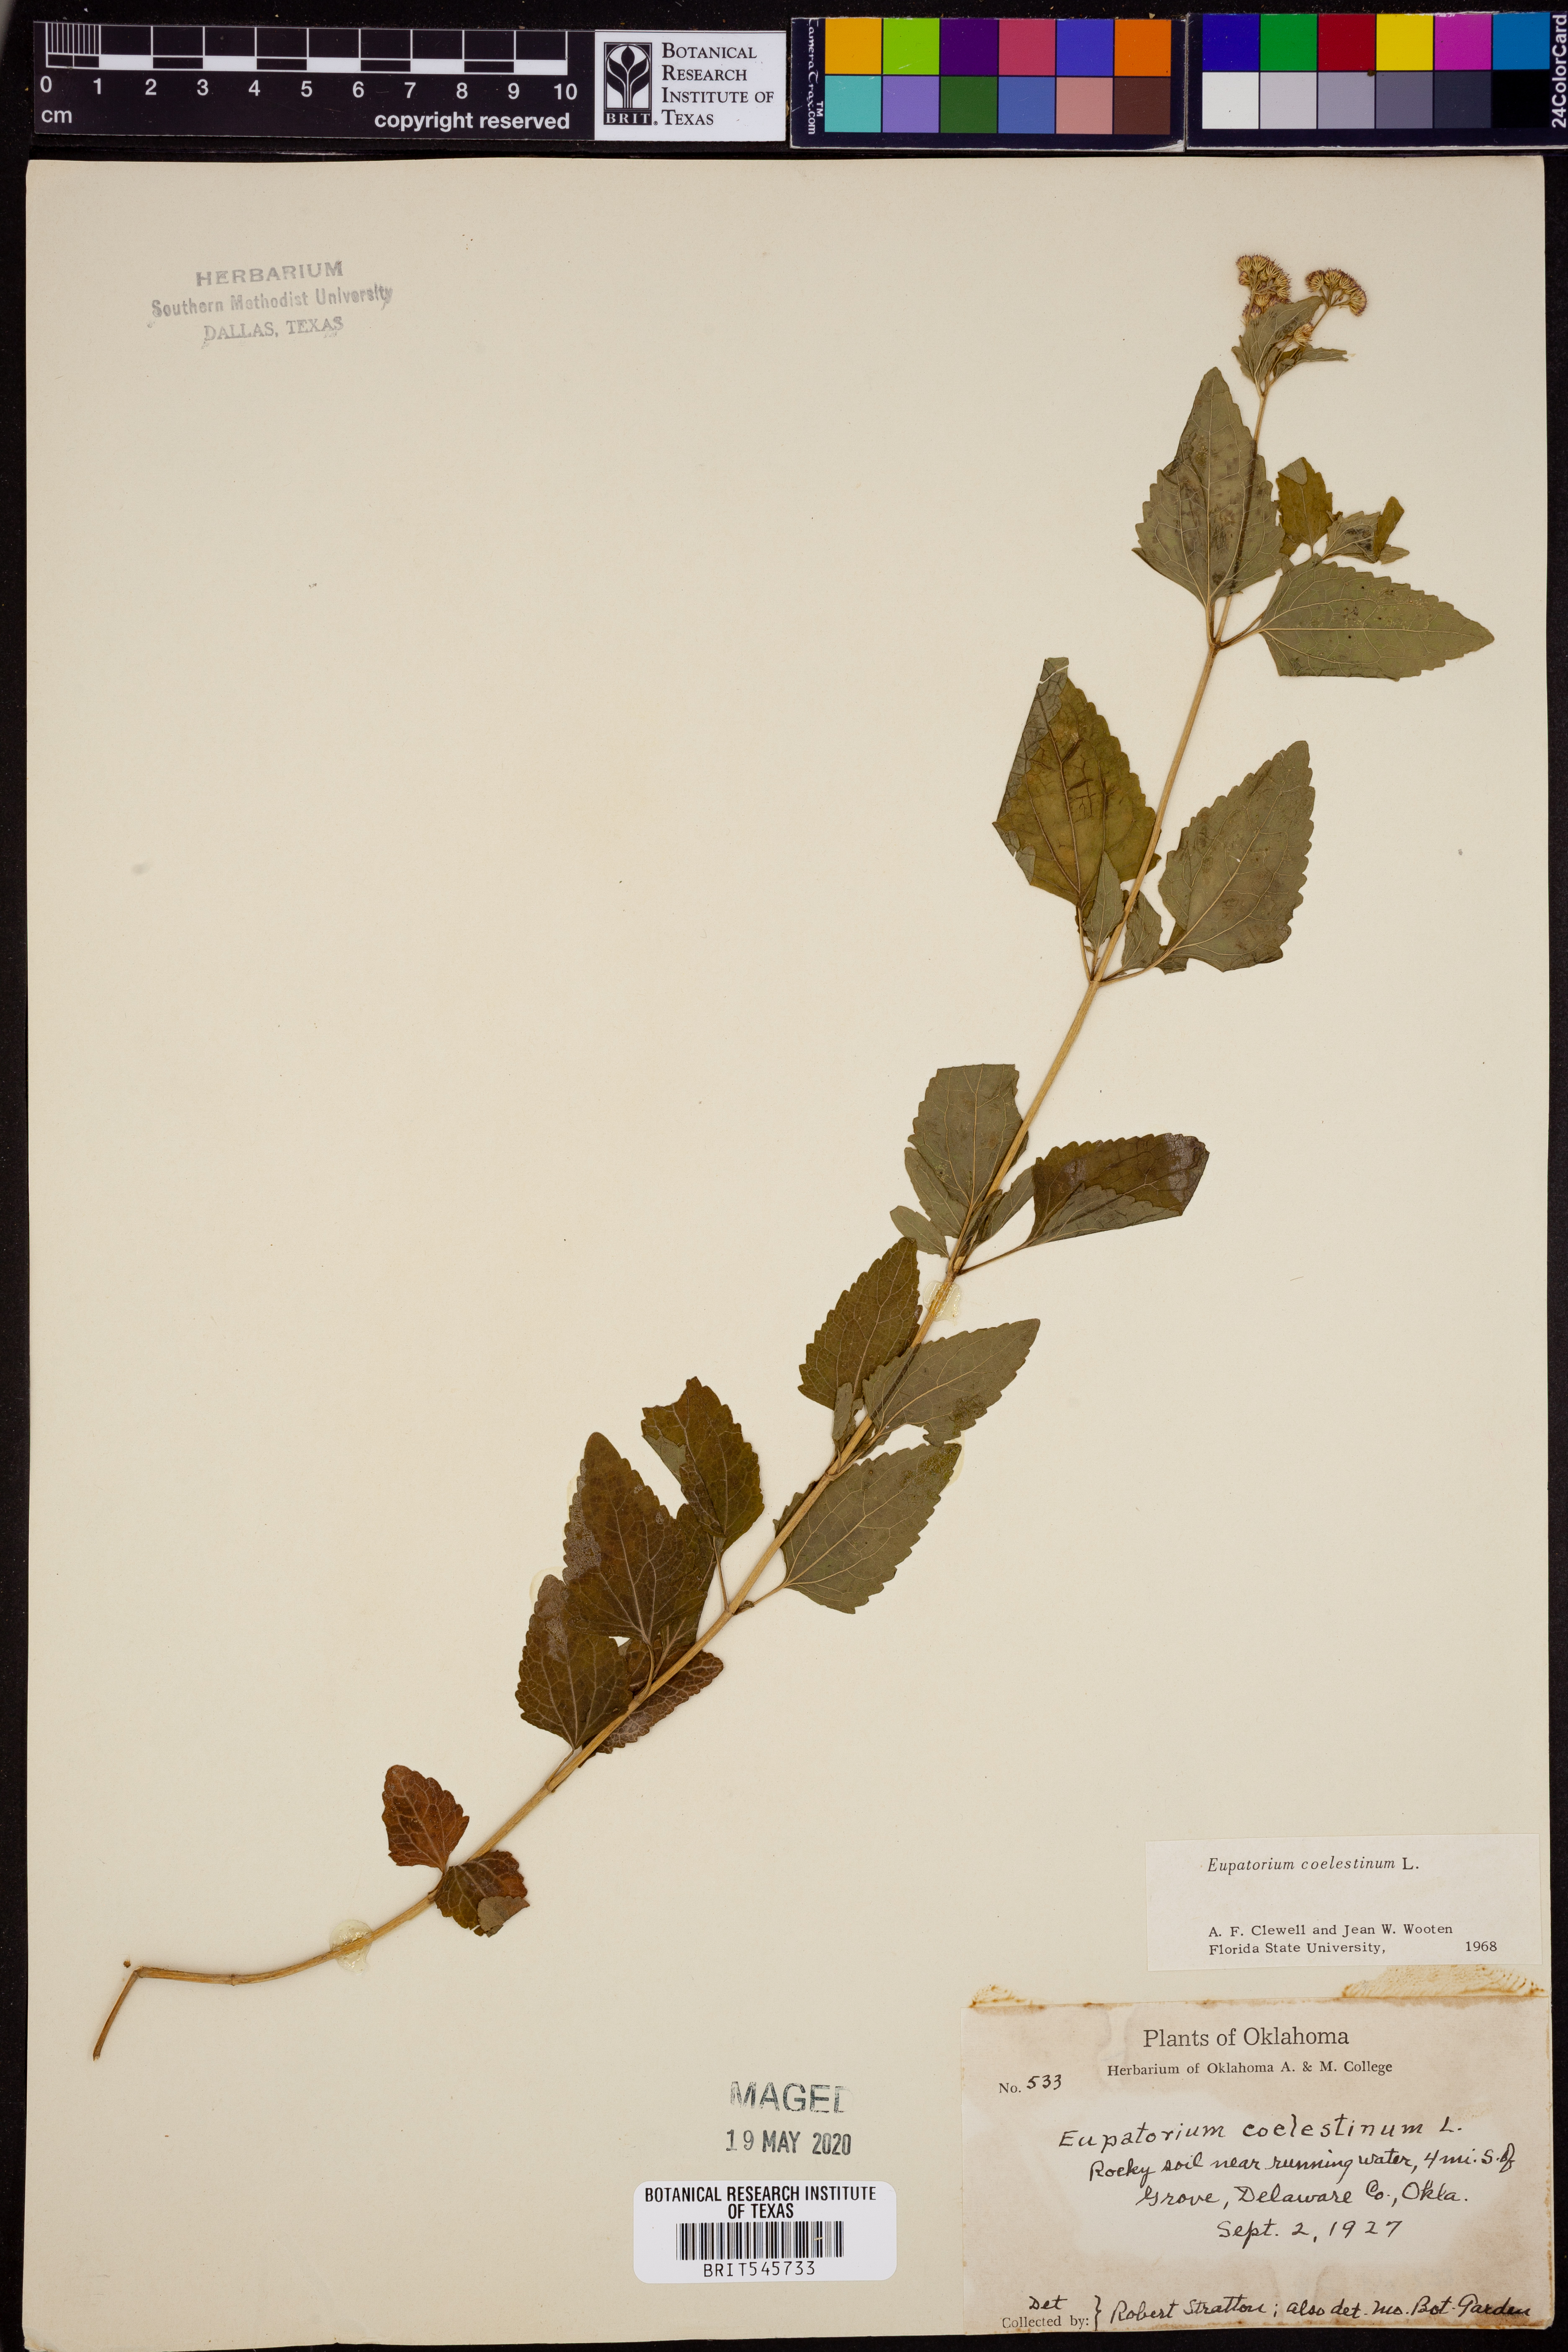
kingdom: Plantae
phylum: Tracheophyta
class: Magnoliopsida
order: Asterales
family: Asteraceae
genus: Conoclinium
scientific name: Conoclinium coelestinum
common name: Blue mistflower
